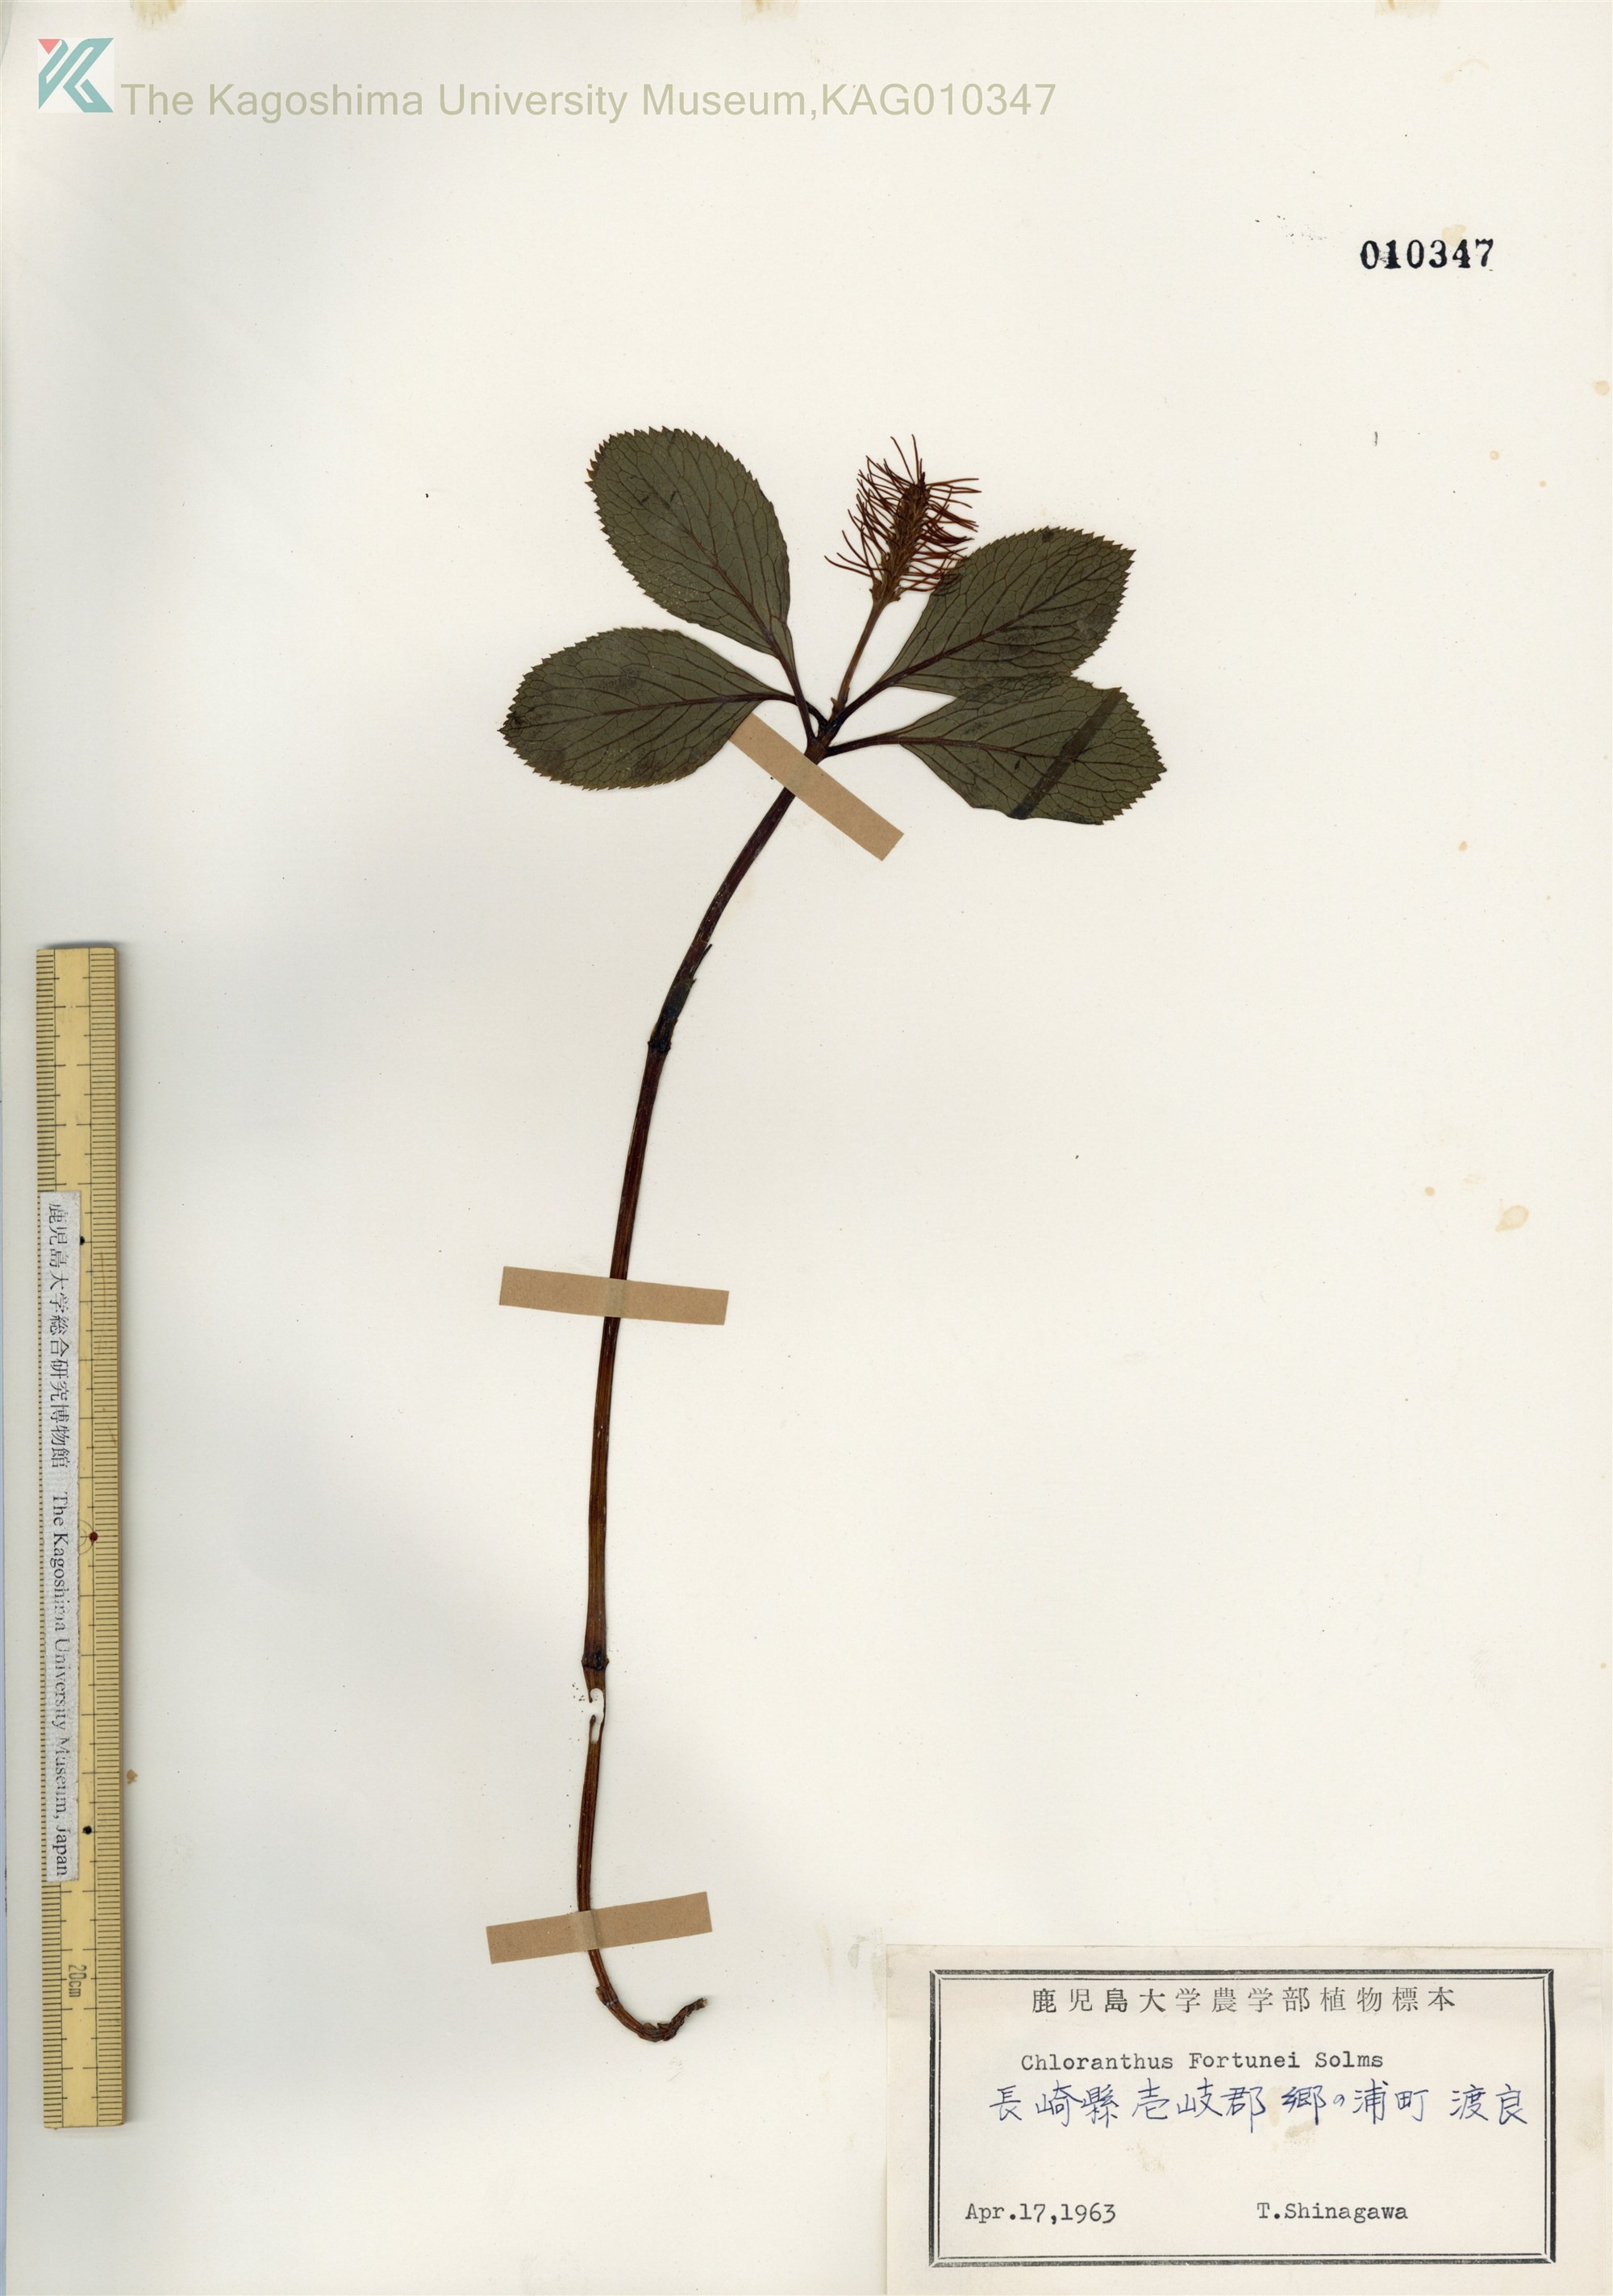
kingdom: Plantae
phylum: Tracheophyta
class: Magnoliopsida
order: Chloranthales
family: Chloranthaceae
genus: Chloranthus
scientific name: Chloranthus fortunei
